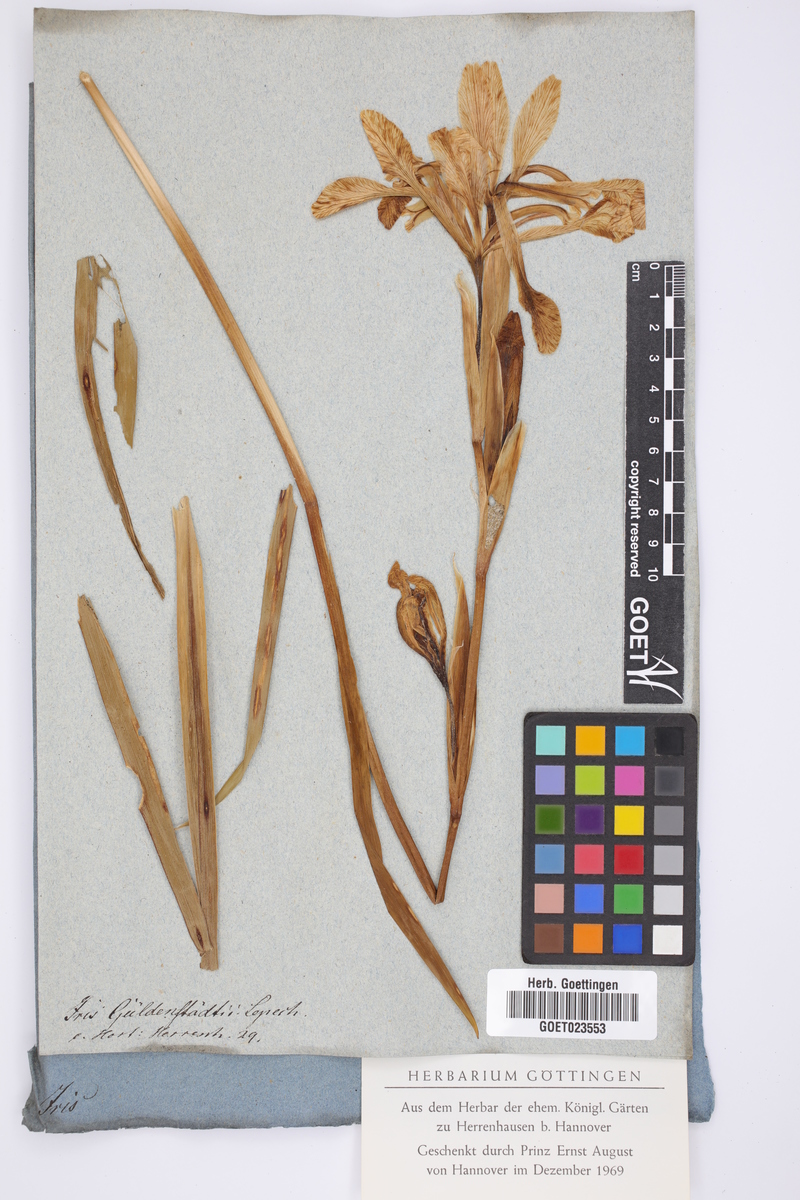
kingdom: Plantae
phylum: Tracheophyta
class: Liliopsida
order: Asparagales
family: Iridaceae
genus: Iris
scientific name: Iris halophila
